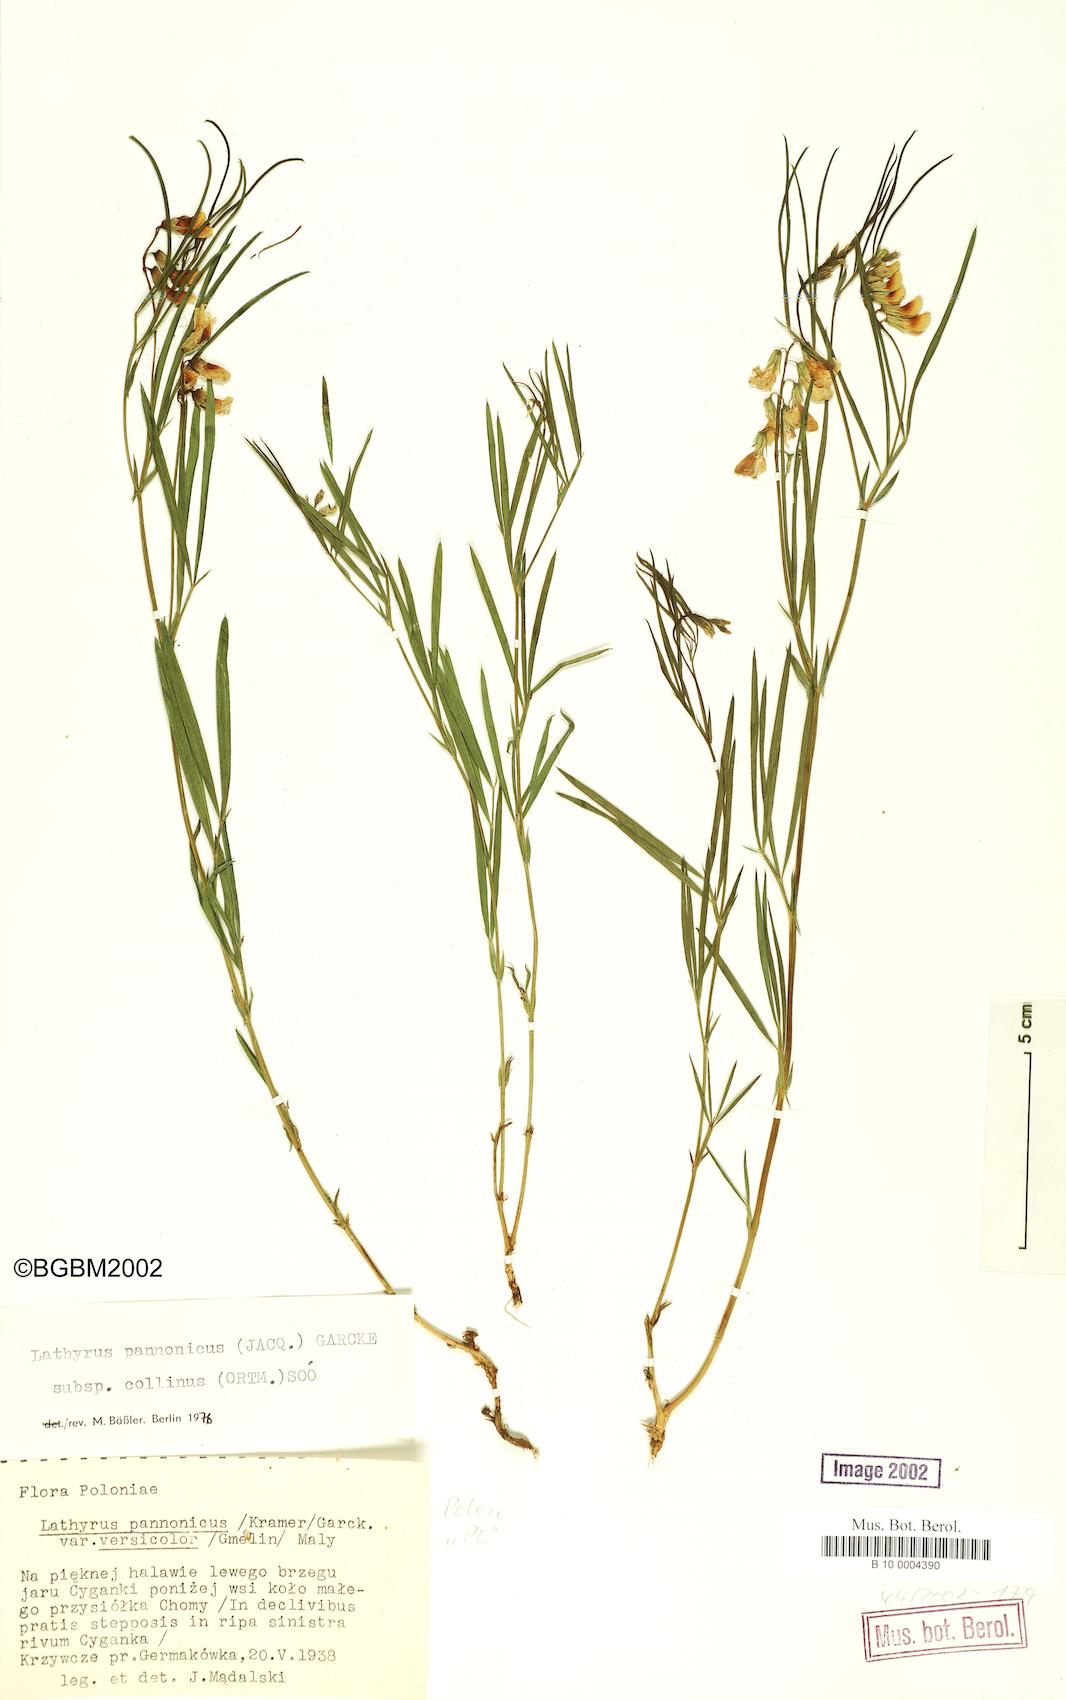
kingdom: Plantae
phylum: Tracheophyta
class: Magnoliopsida
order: Fabales
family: Fabaceae
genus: Lathyrus
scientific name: Lathyrus pannonicus
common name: Pea
